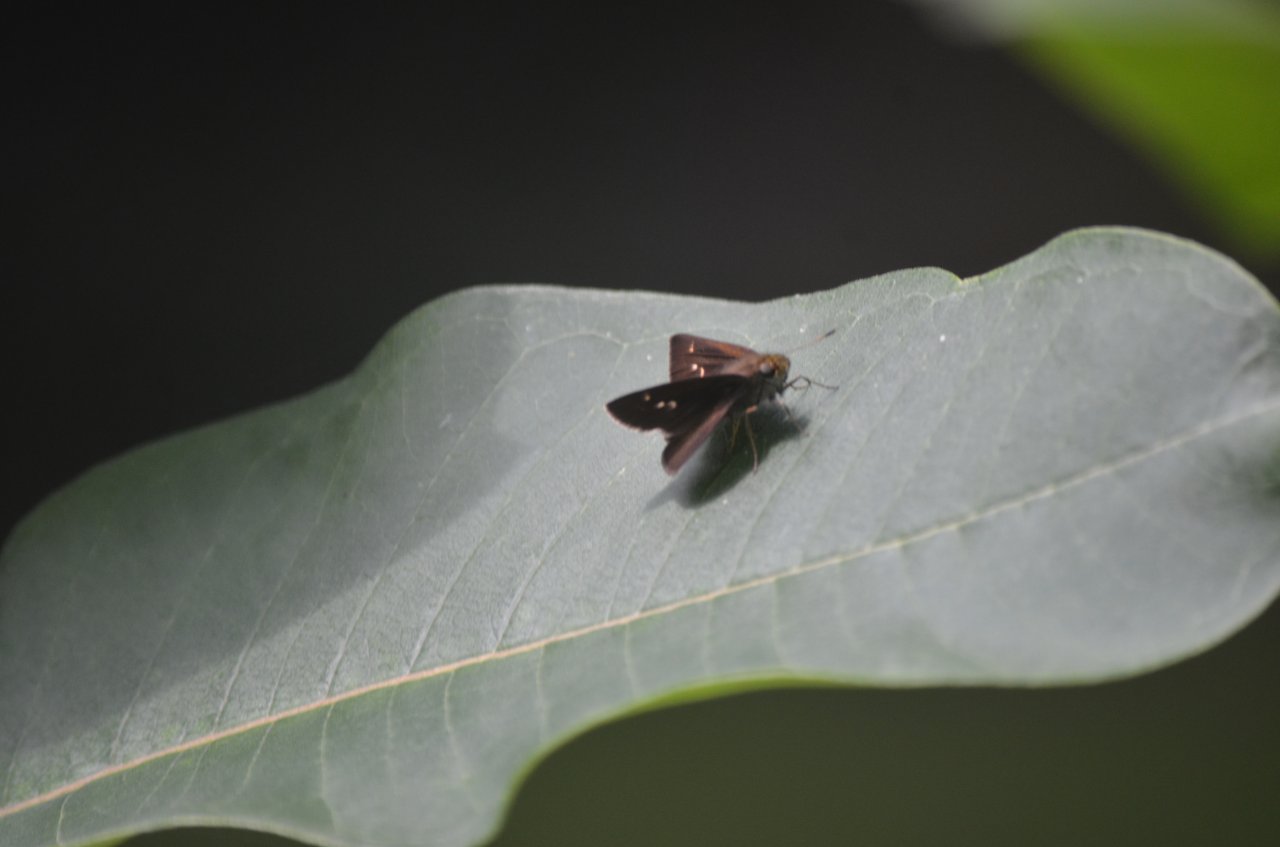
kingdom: Animalia
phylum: Arthropoda
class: Insecta
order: Lepidoptera
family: Hesperiidae
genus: Polites
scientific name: Polites themistocles
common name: Tawny-edged Skipper
